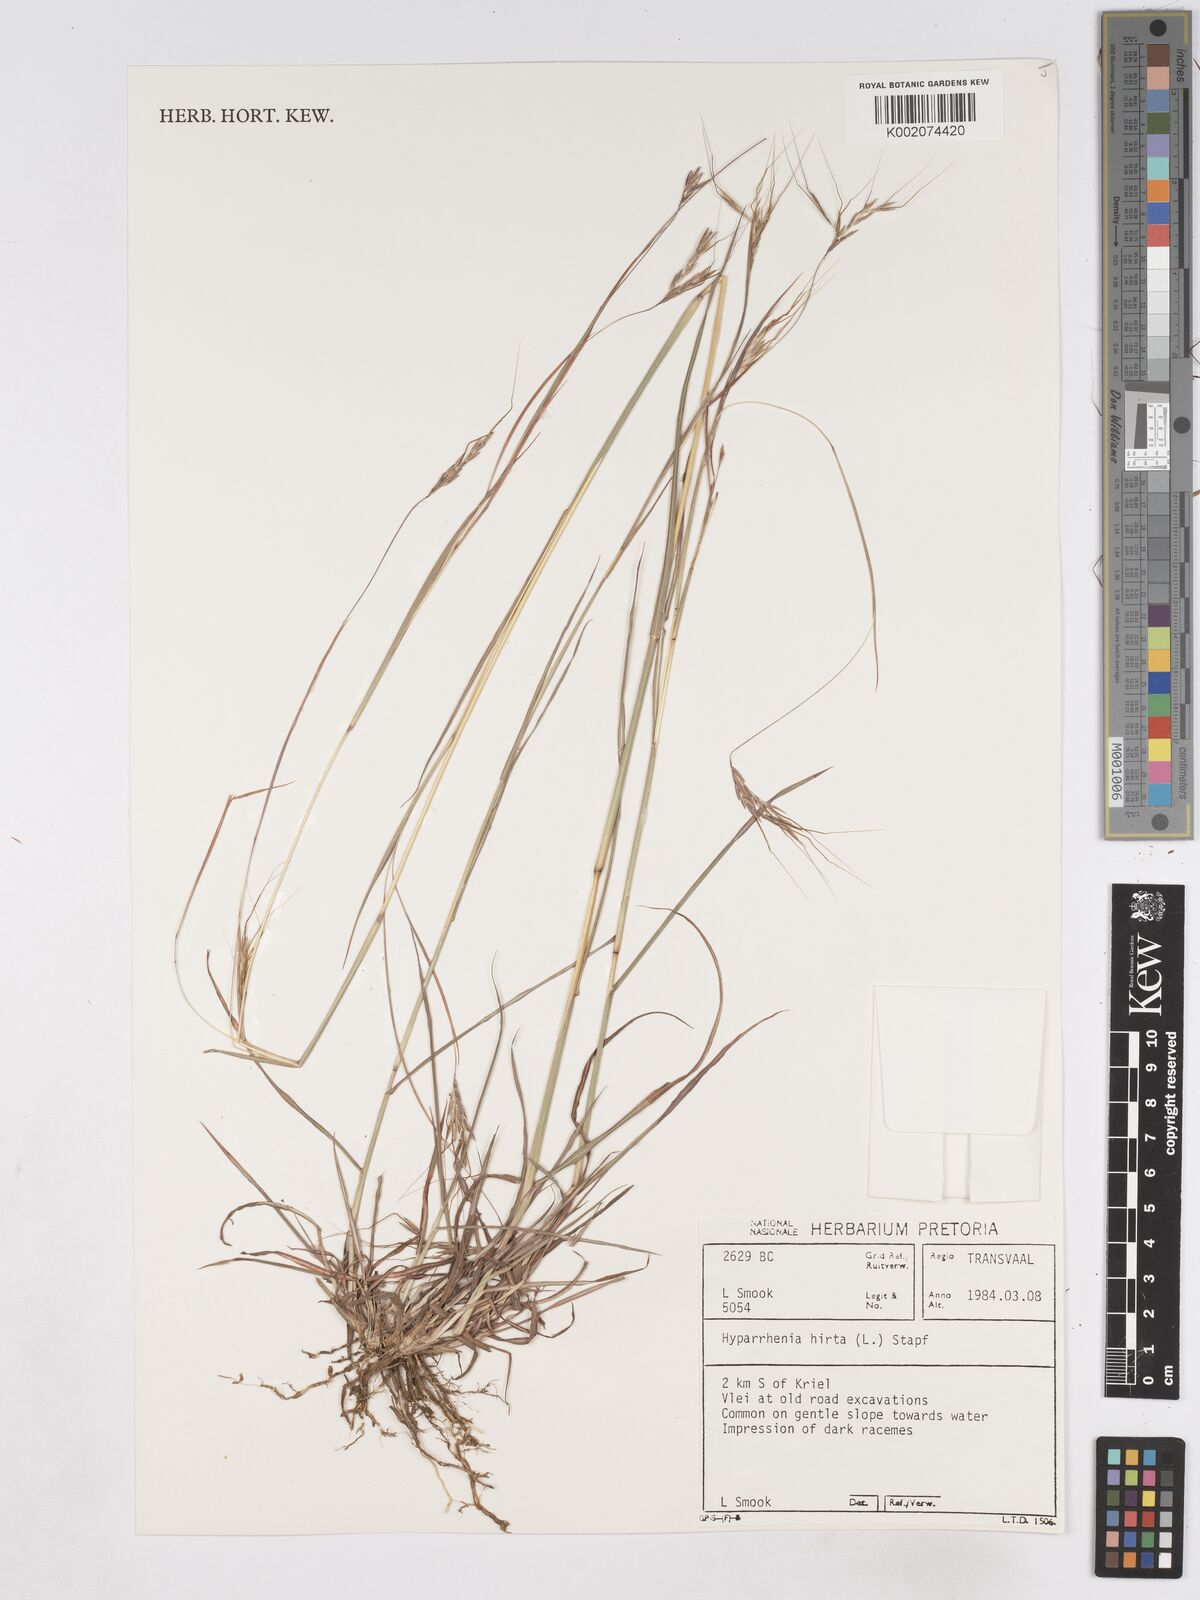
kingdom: Plantae
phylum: Tracheophyta
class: Liliopsida
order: Poales
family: Poaceae
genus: Hyparrhenia
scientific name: Hyparrhenia hirta
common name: Thatching grass
